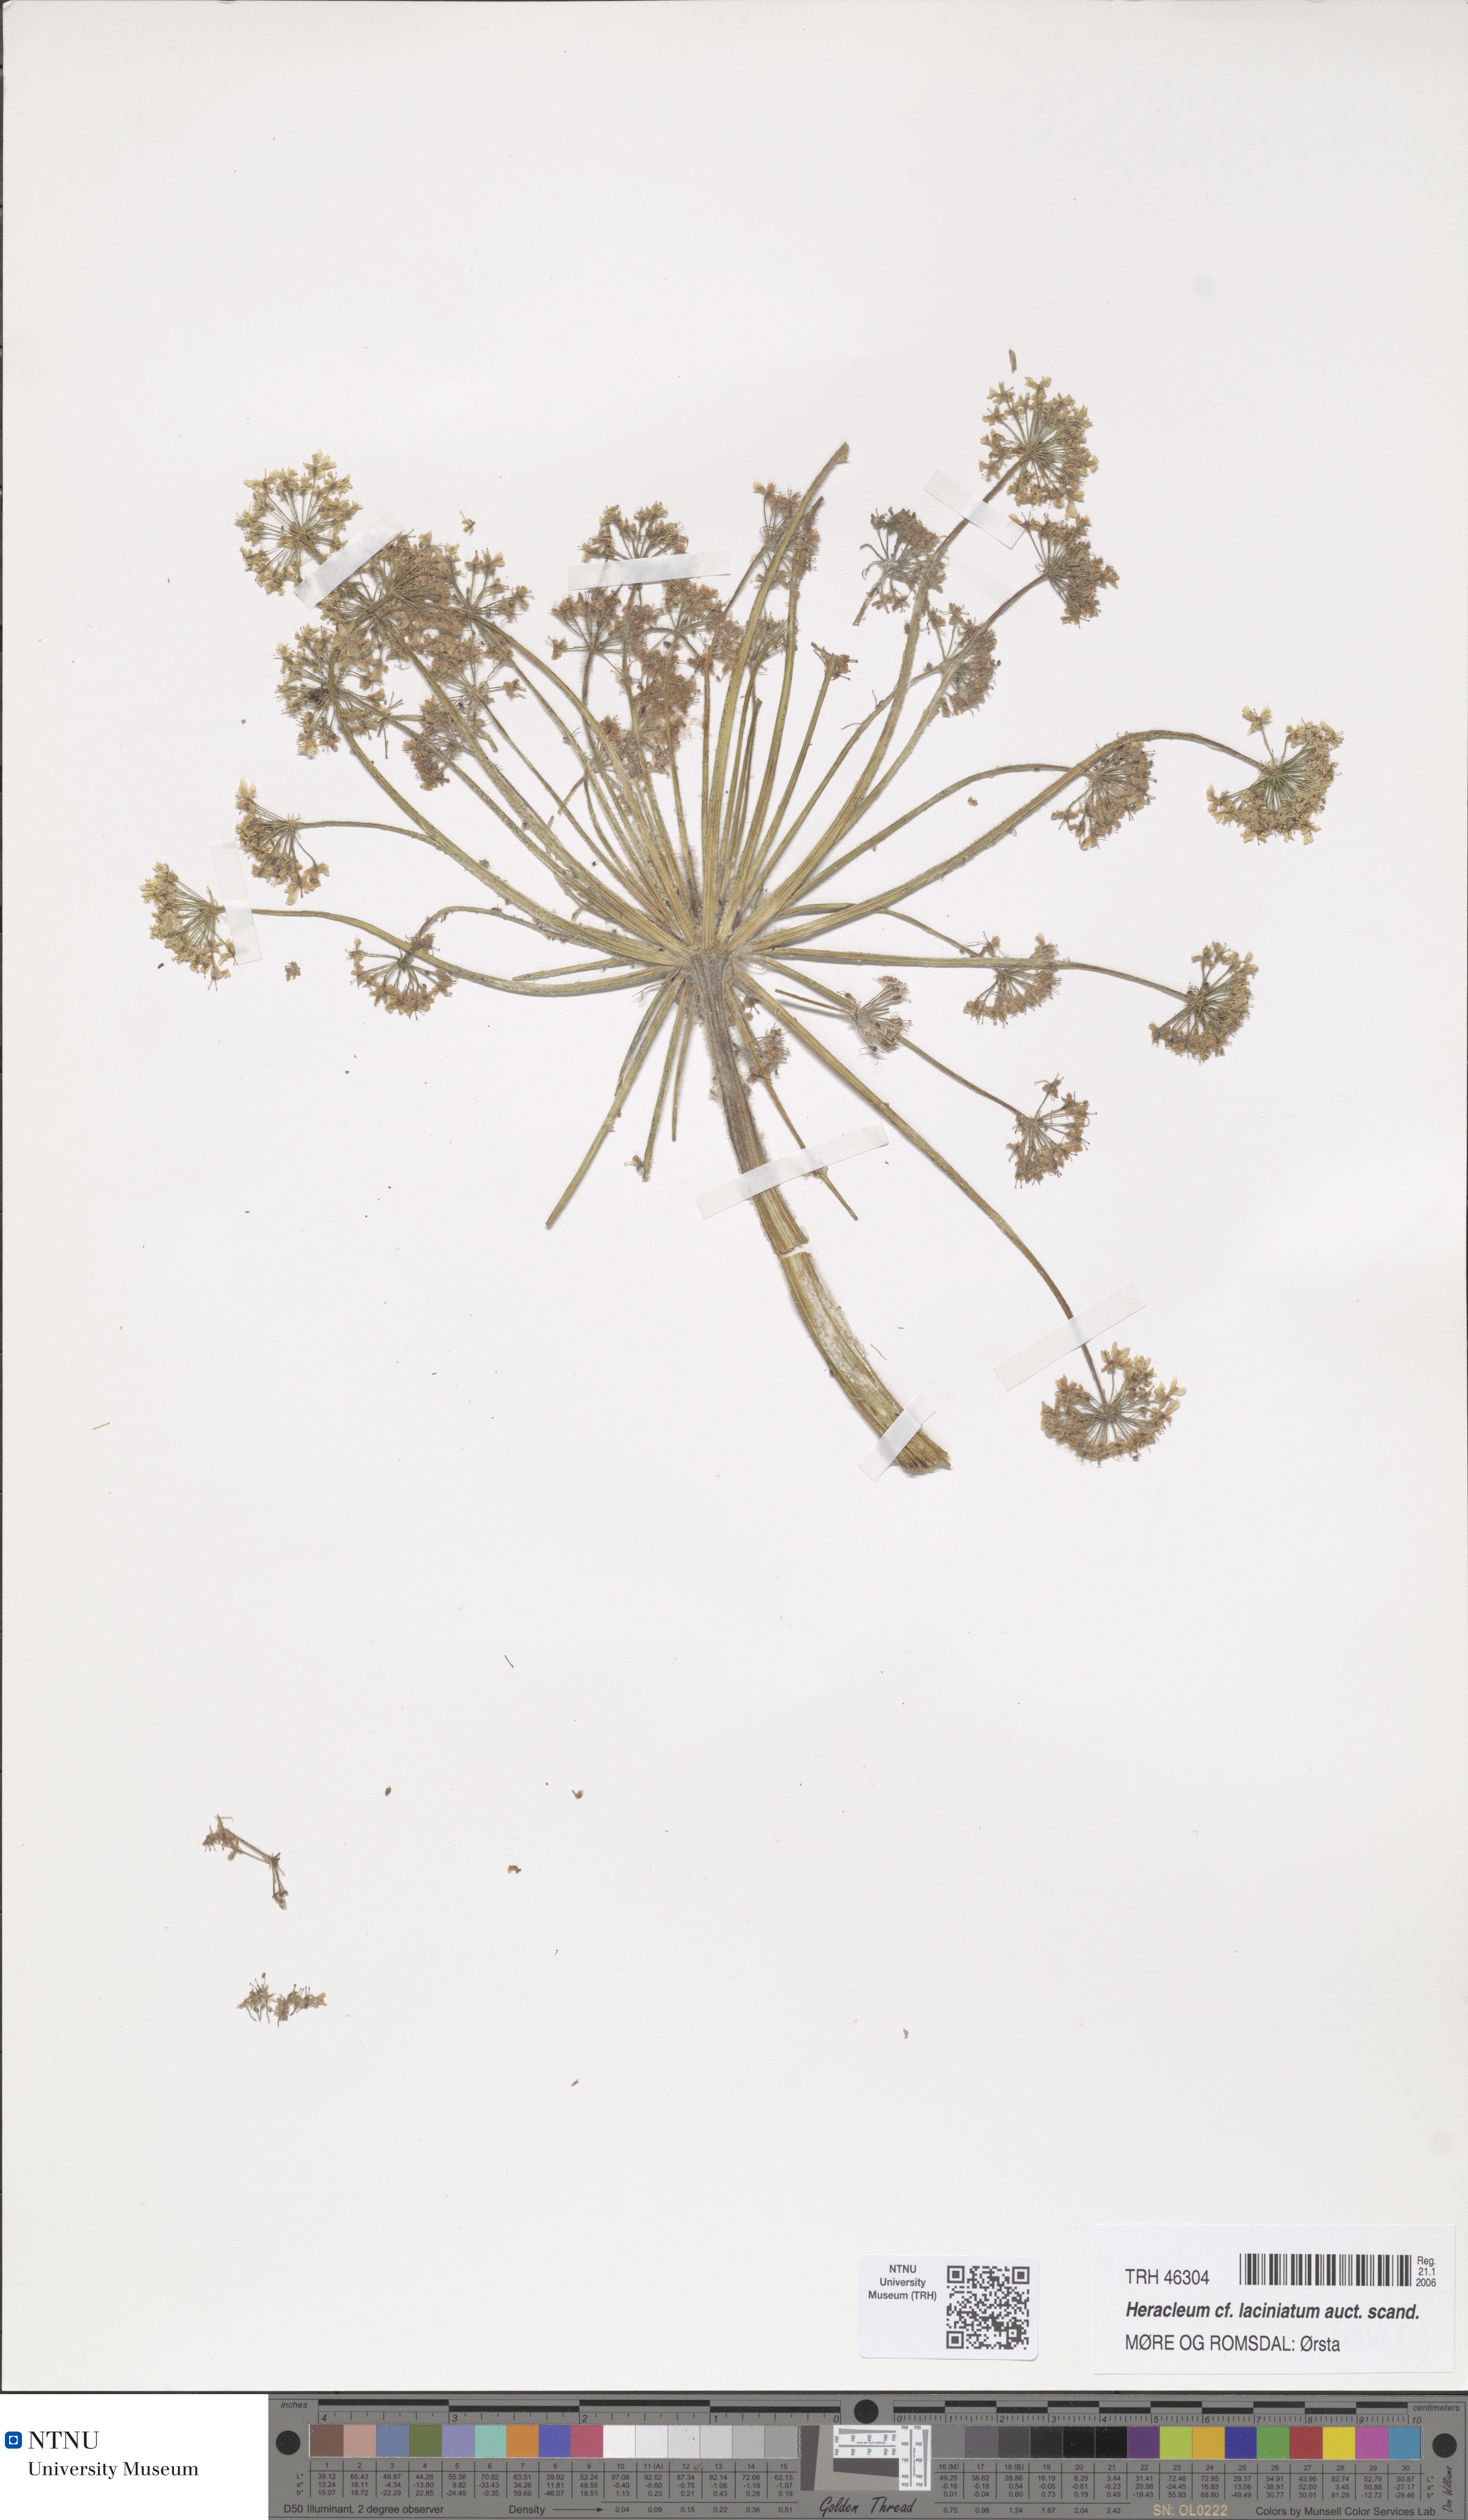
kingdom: Plantae
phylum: Tracheophyta
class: Magnoliopsida
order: Apiales
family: Apiaceae
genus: Heracleum
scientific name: Heracleum persicum
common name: Persian hogweed
